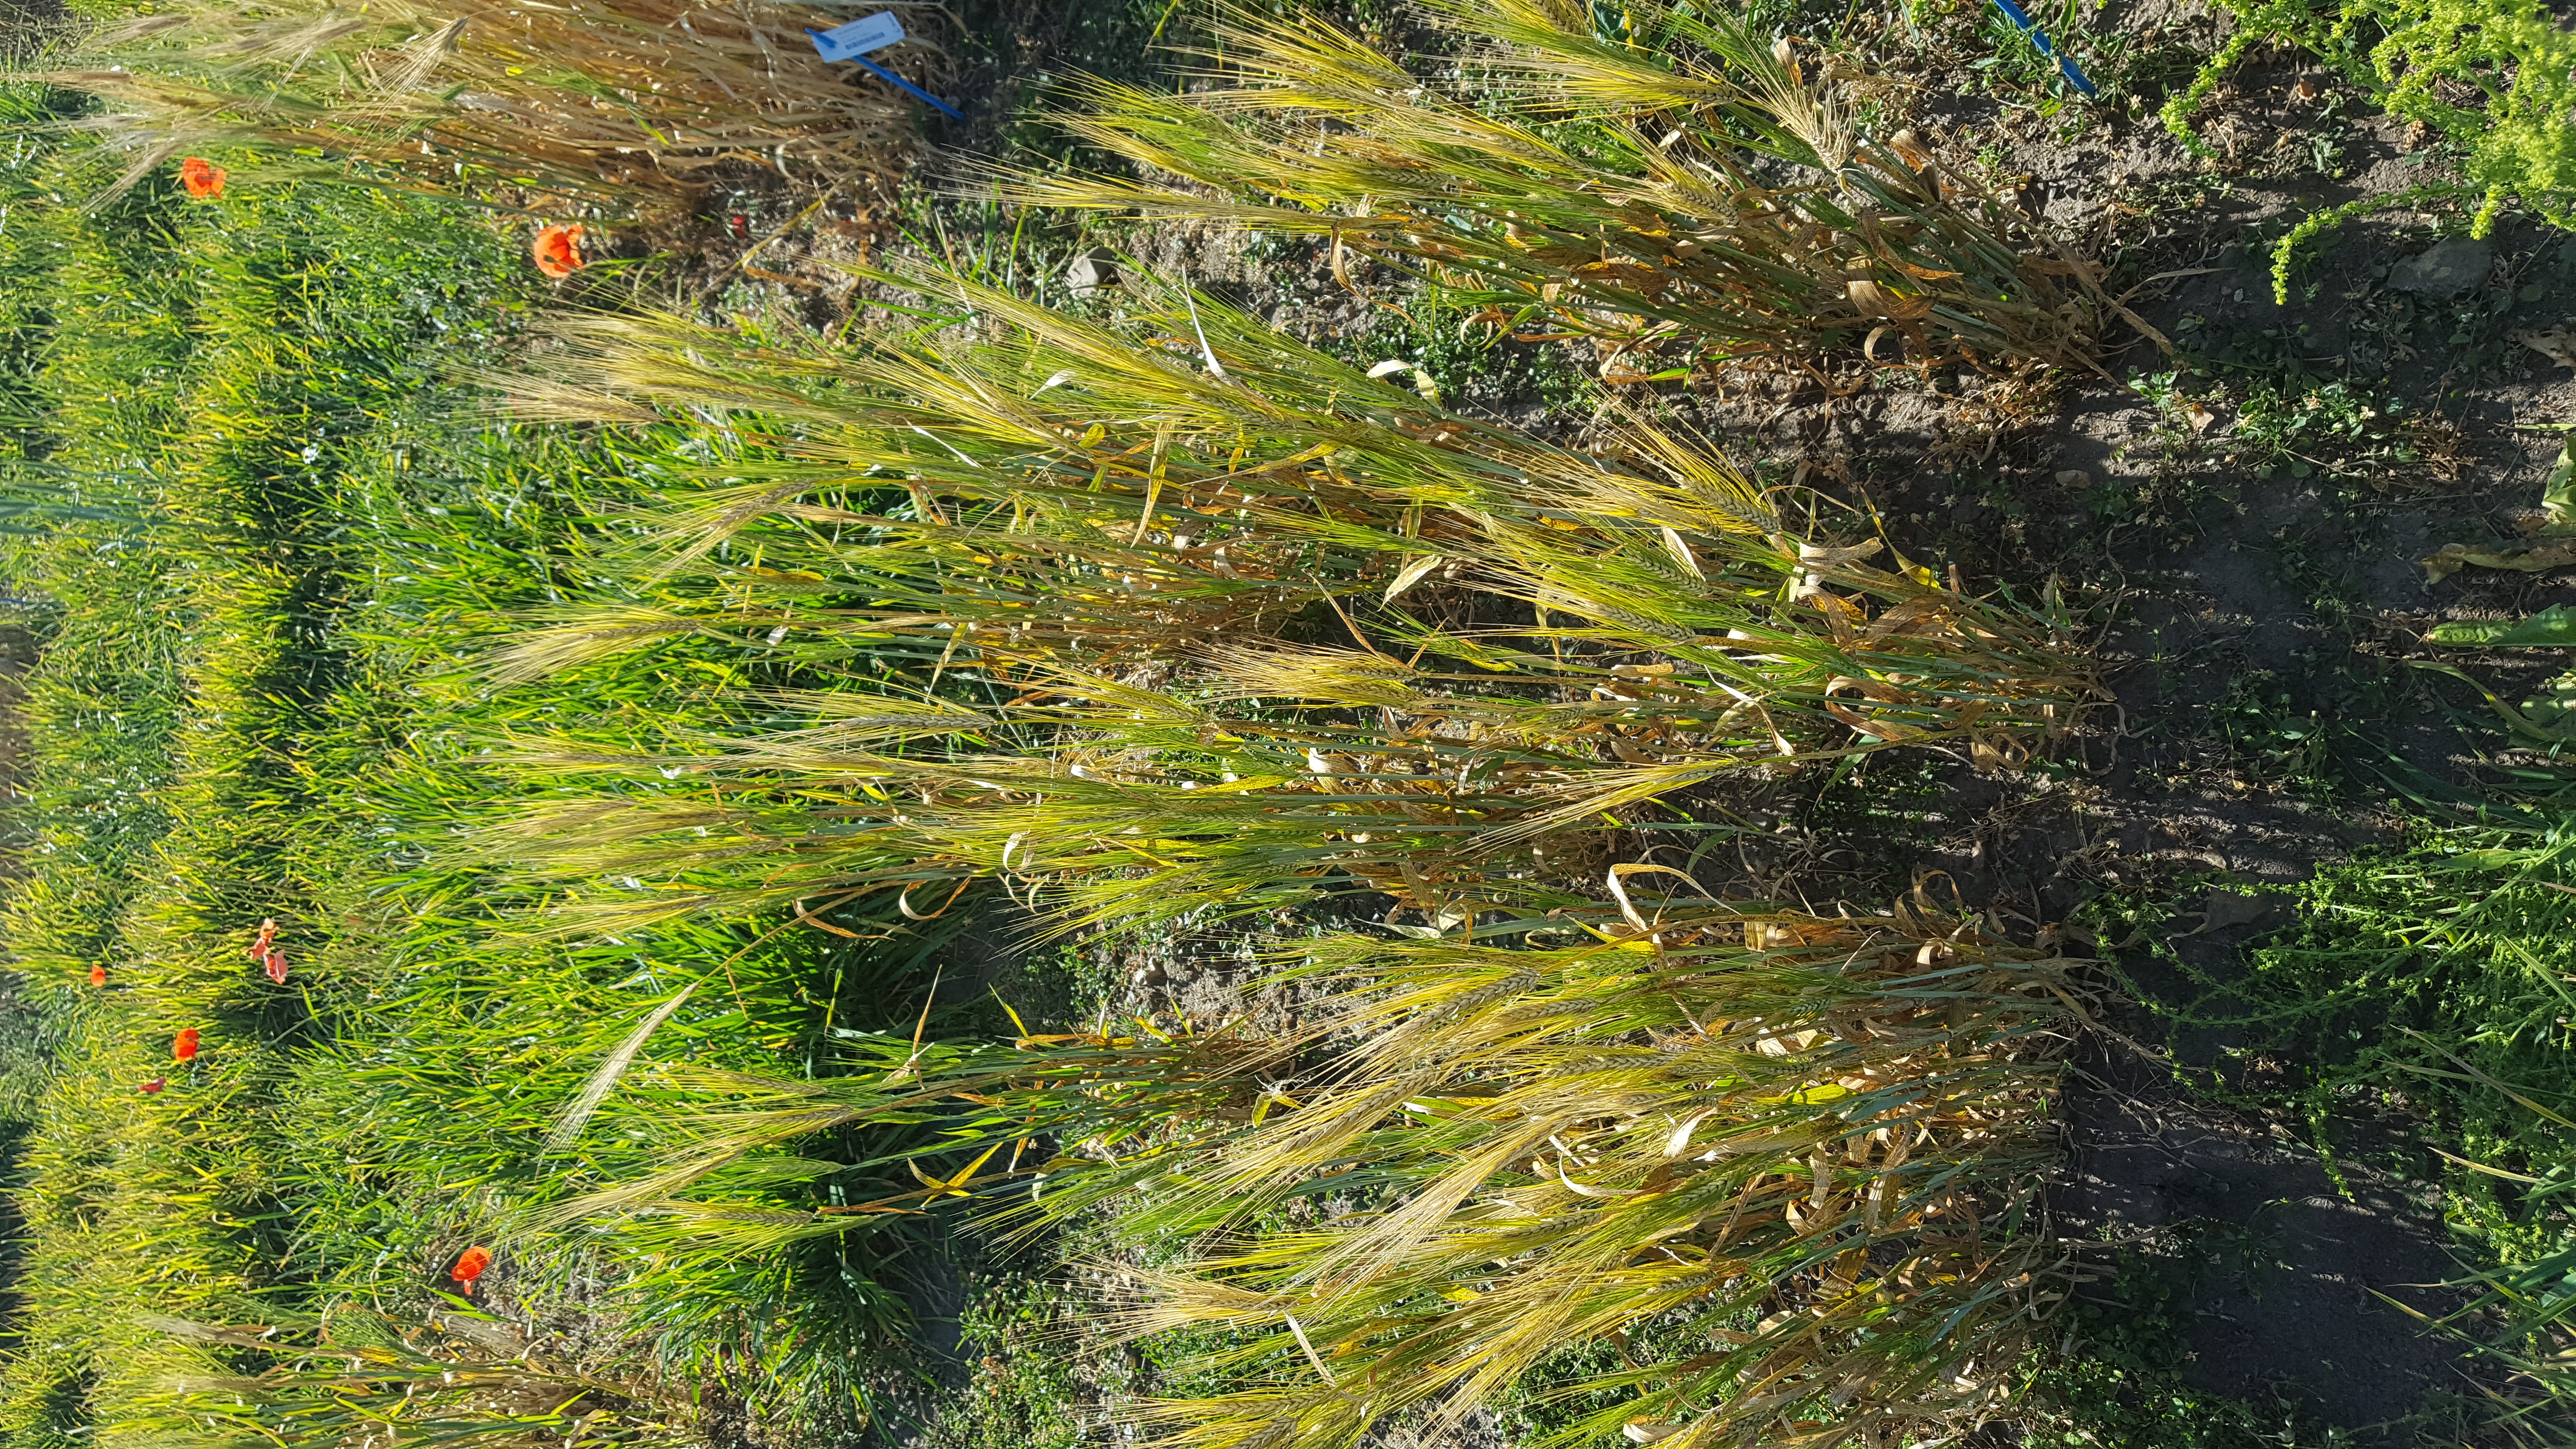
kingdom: Plantae
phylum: Tracheophyta
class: Liliopsida
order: Poales
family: Poaceae
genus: Hordeum
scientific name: Hordeum vulgare
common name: Common barley
